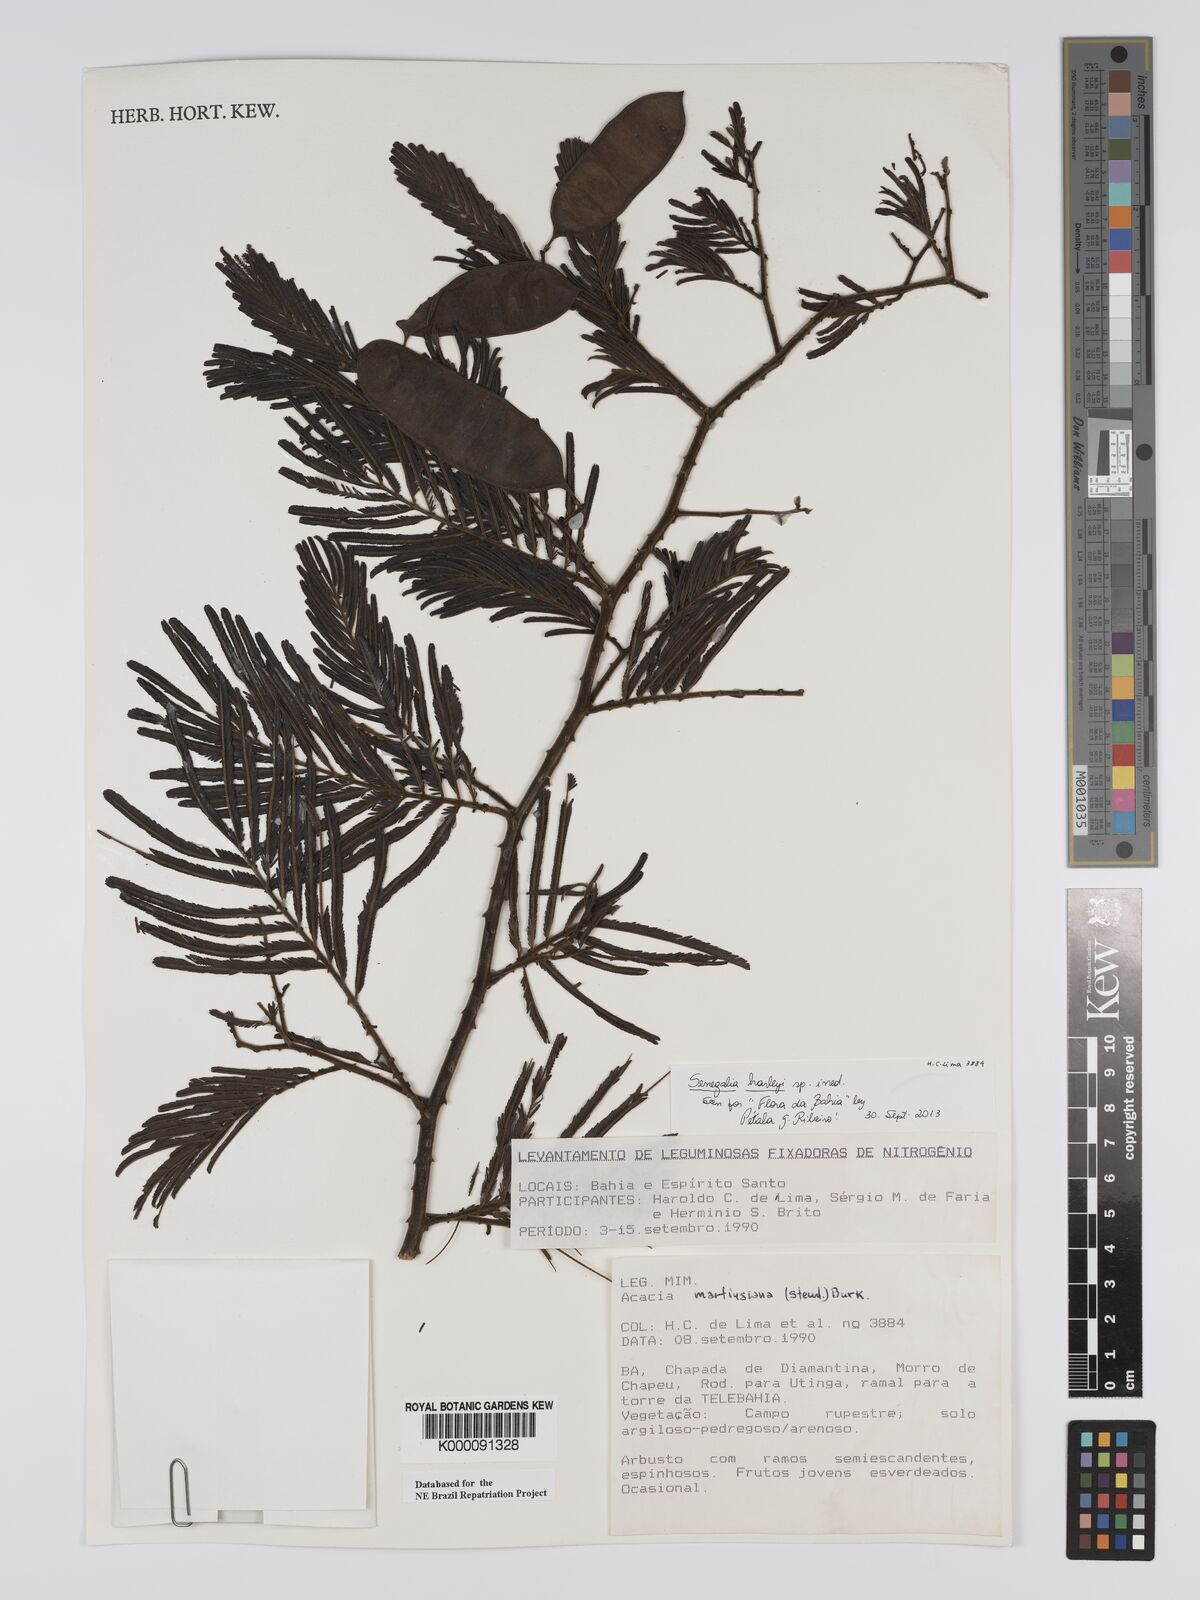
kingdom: Plantae
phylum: Tracheophyta
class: Magnoliopsida
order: Fabales
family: Fabaceae
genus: Senegalia
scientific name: Senegalia martiusiana
